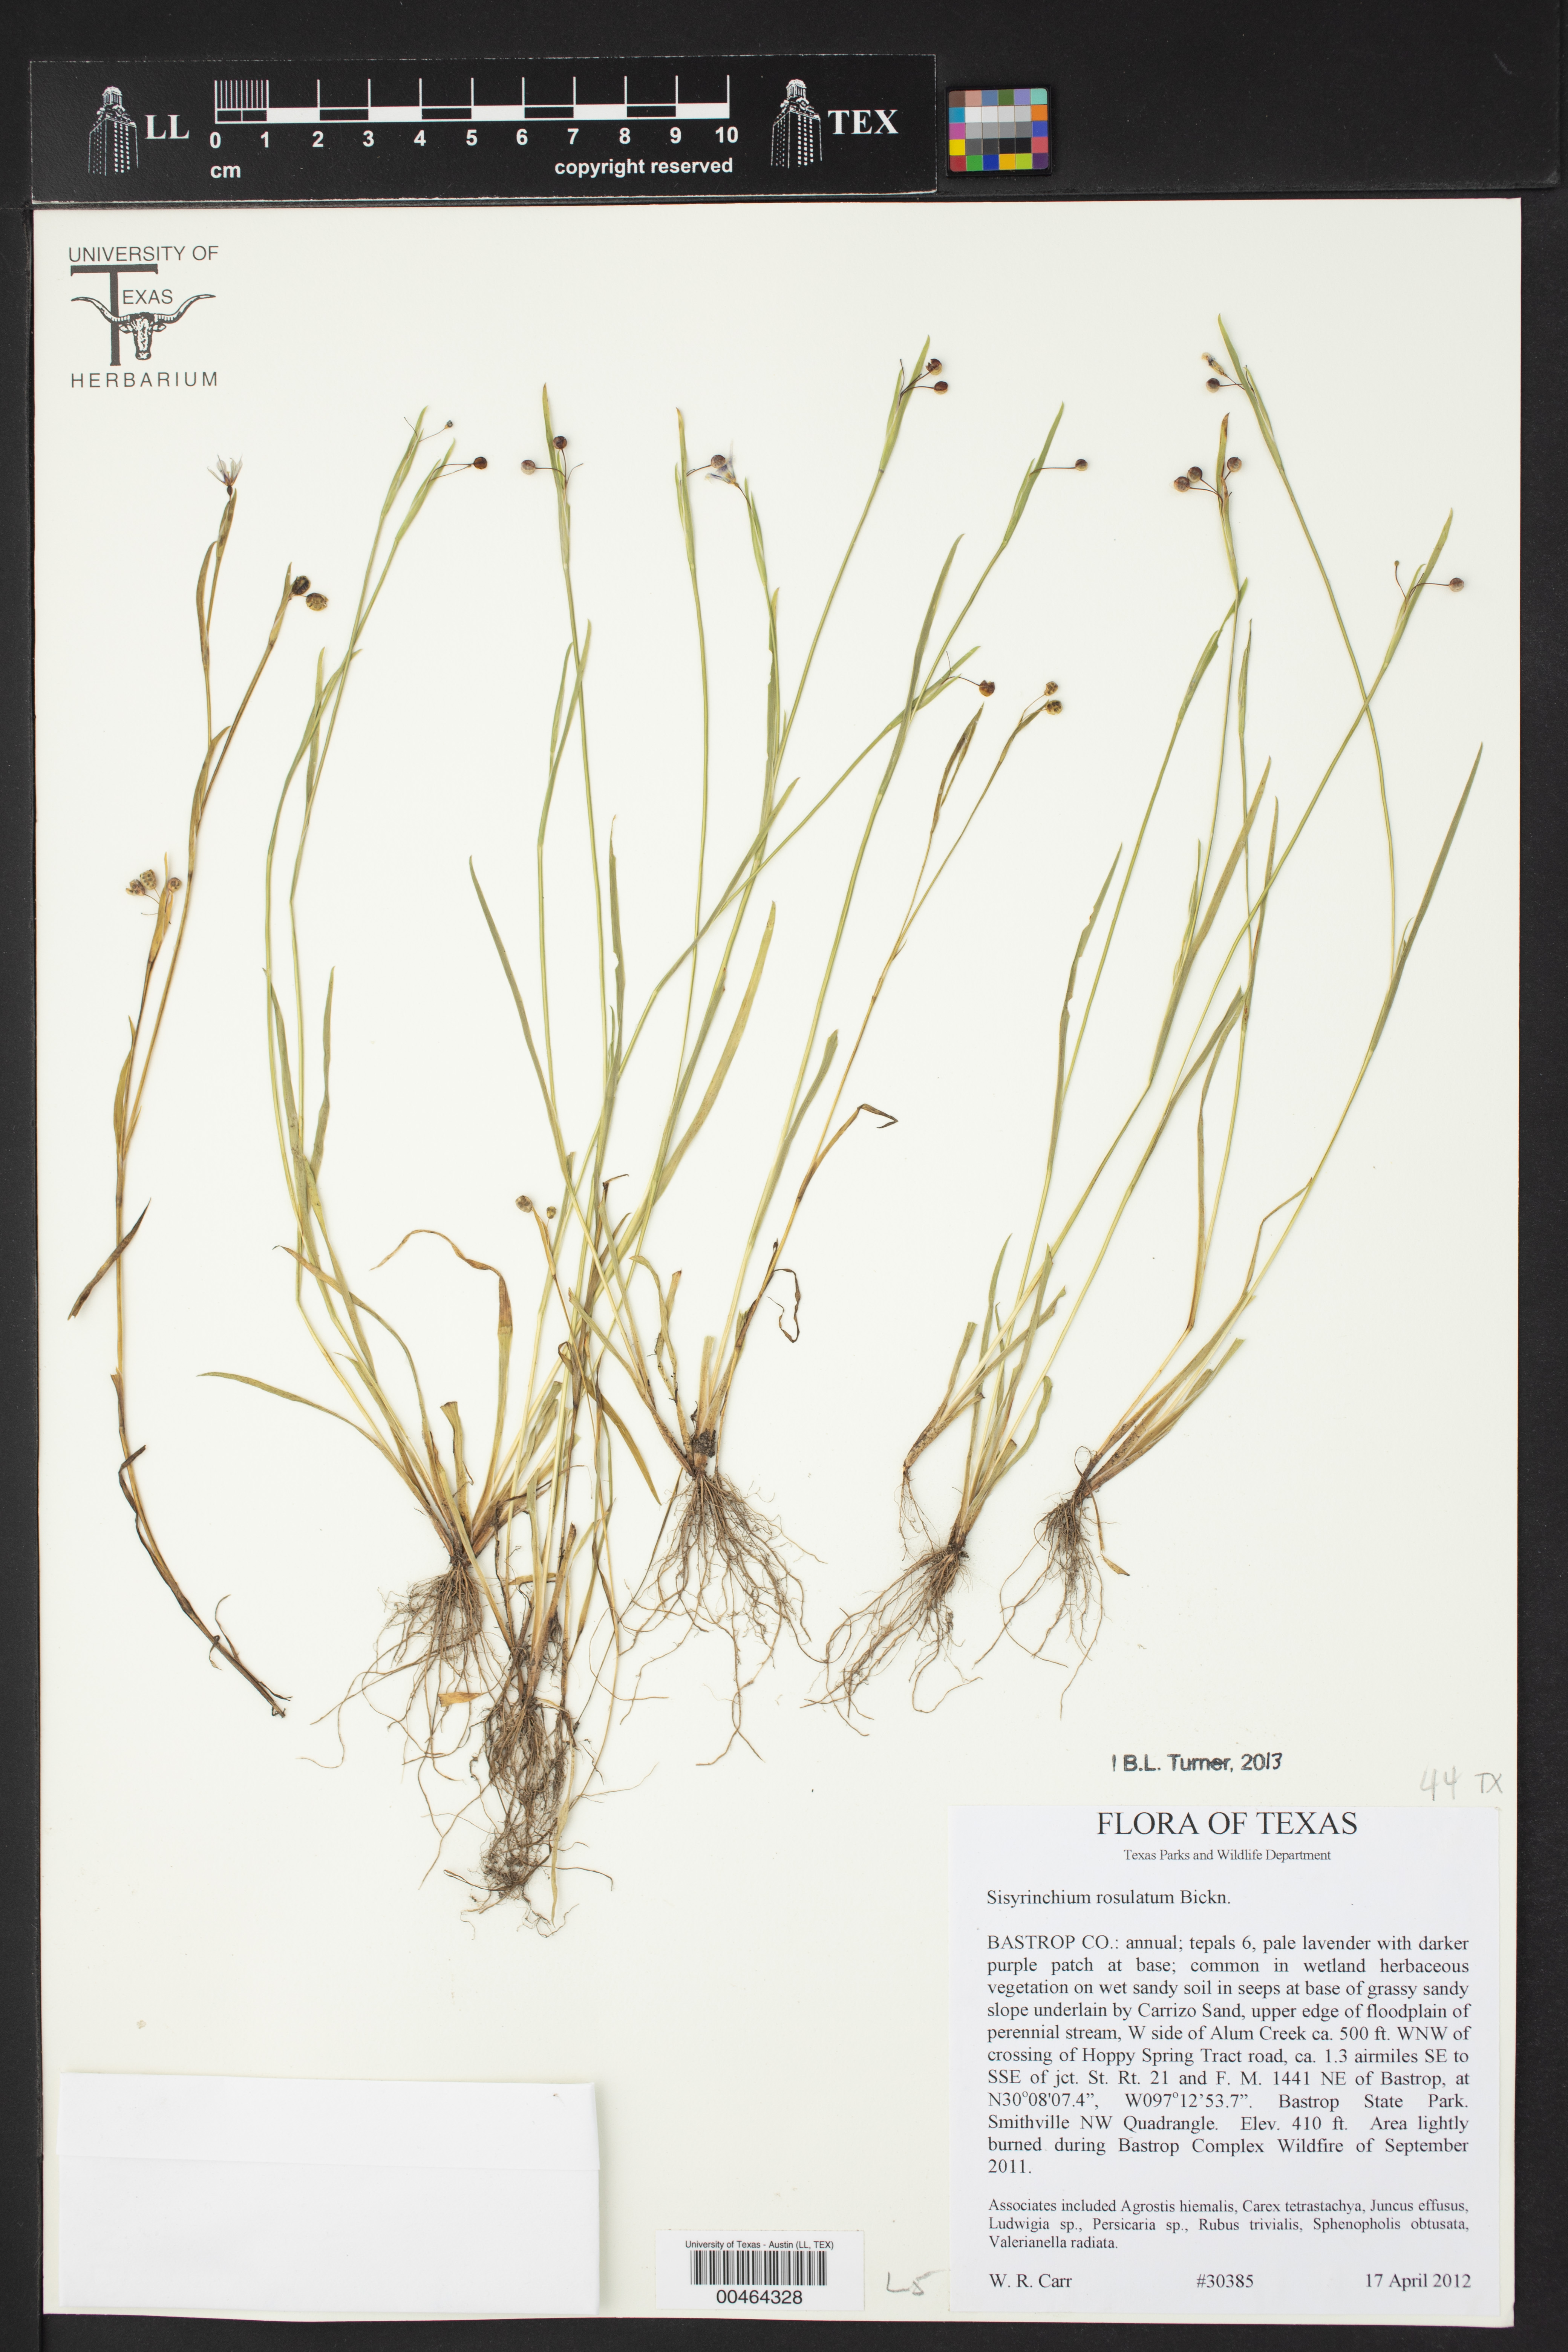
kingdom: Plantae
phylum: Tracheophyta
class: Liliopsida
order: Asparagales
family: Iridaceae
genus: Sisyrinchium
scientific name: Sisyrinchium rosulatum
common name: Annual blue-eyed grass
